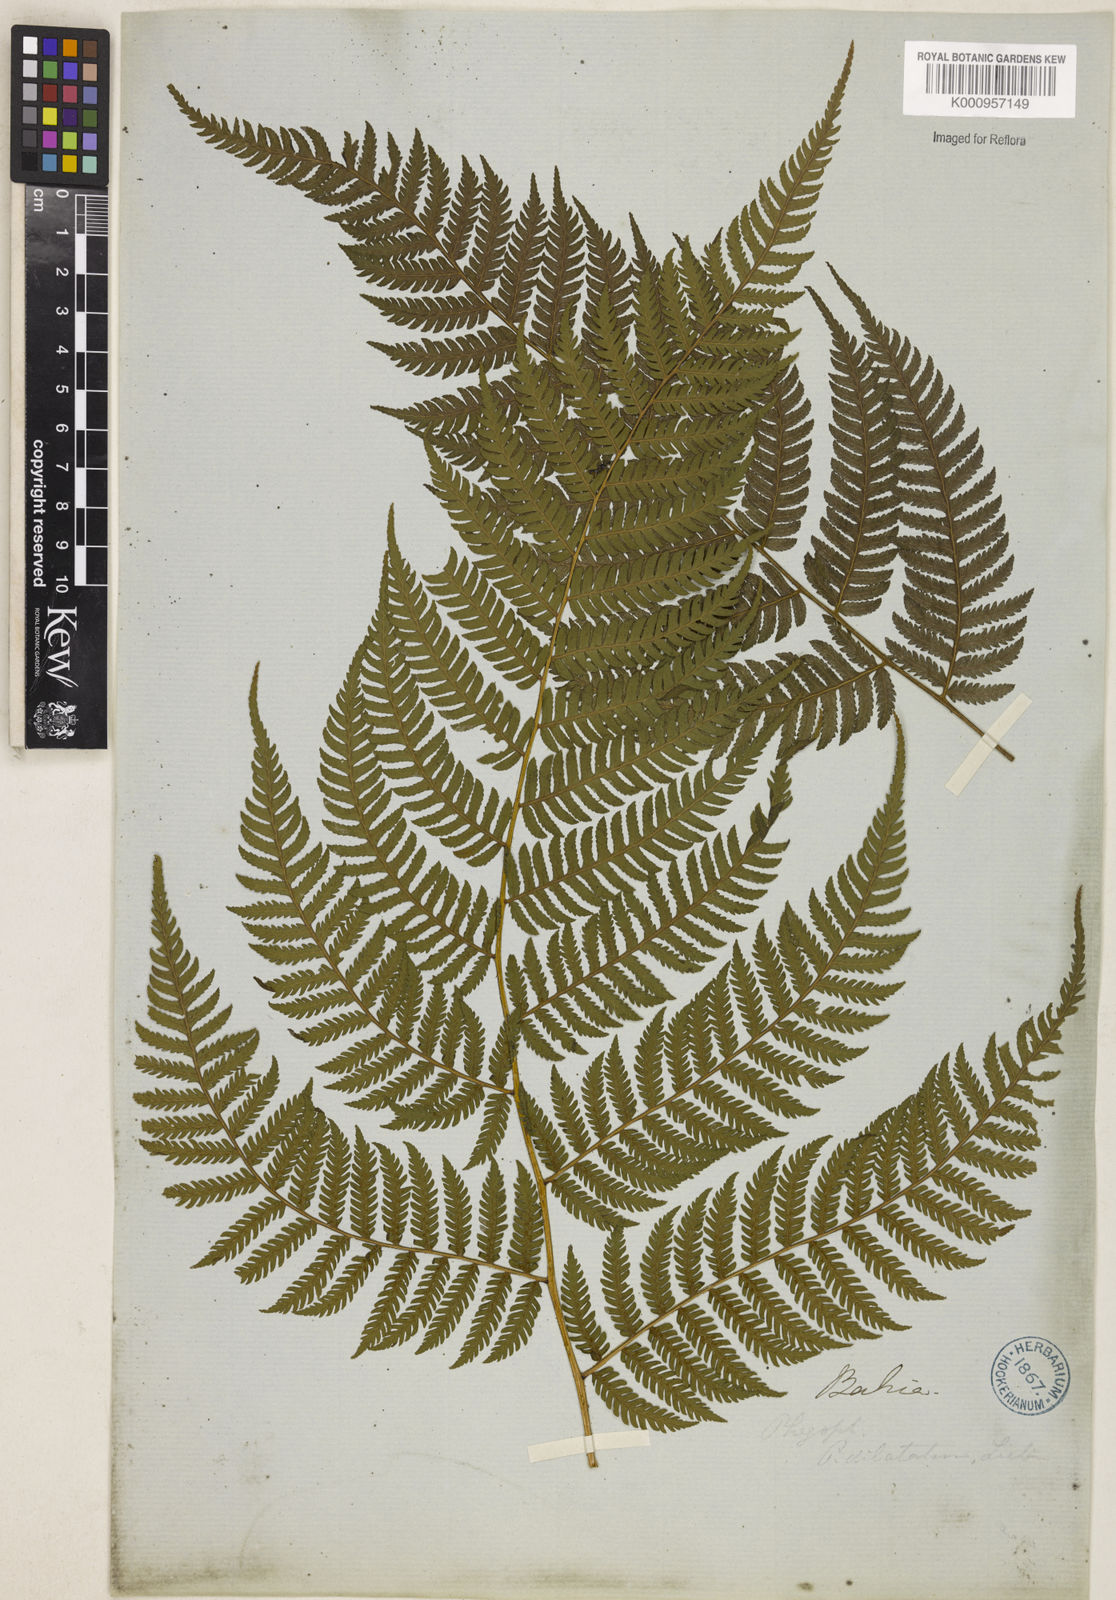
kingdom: Plantae
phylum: Tracheophyta
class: Polypodiopsida
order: Polypodiales
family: Dryopteridaceae
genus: Parapolystichum
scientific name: Parapolystichum effusum
